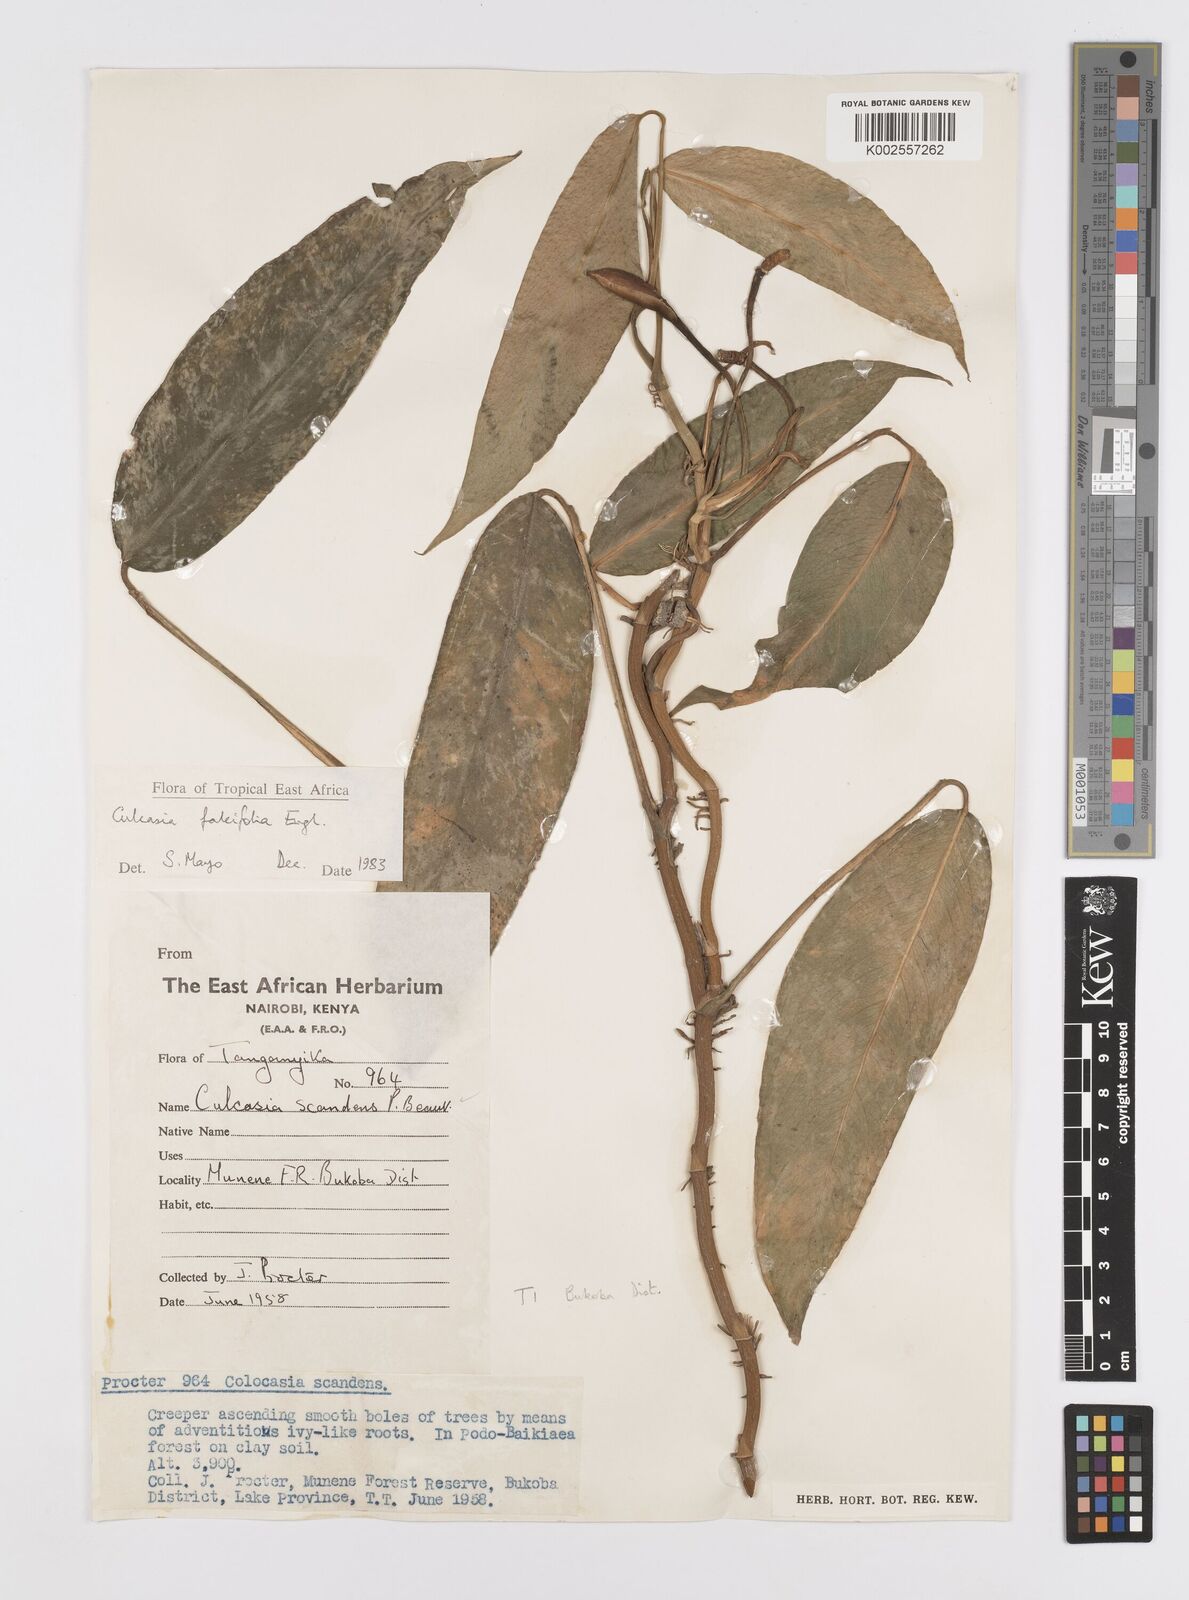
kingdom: Plantae
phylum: Tracheophyta
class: Liliopsida
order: Alismatales
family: Araceae
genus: Culcasia
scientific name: Culcasia falcifolia
